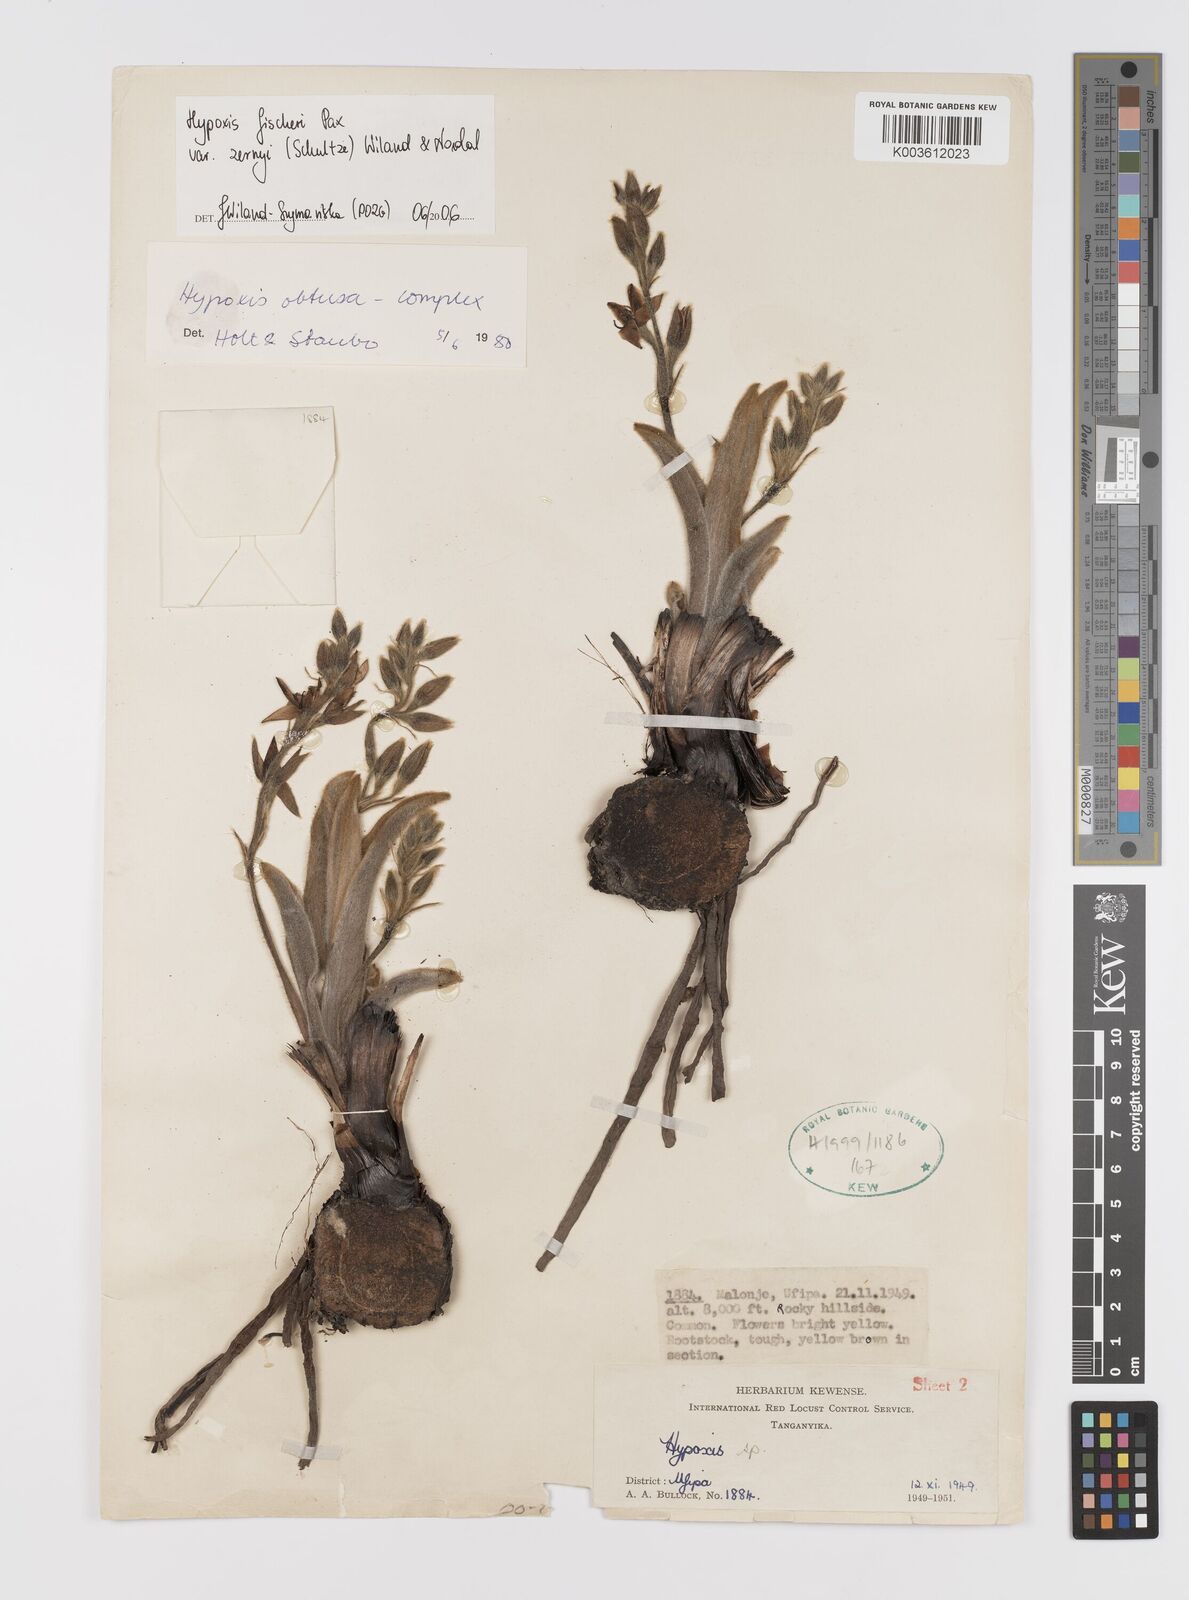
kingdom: Plantae
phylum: Tracheophyta
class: Liliopsida
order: Asparagales
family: Hypoxidaceae
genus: Hypoxis
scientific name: Hypoxis fischeri
